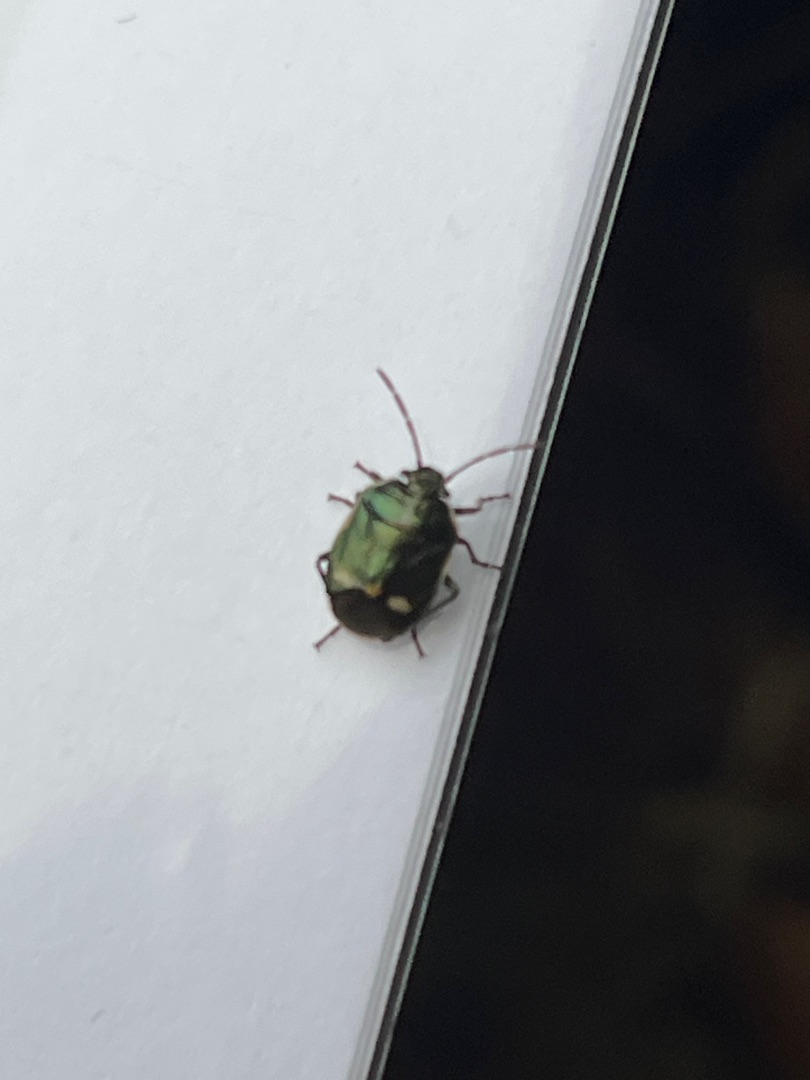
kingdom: Animalia
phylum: Arthropoda
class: Insecta
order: Hemiptera
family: Pentatomidae
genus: Eurydema
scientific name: Eurydema oleracea
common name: Almindelig kåltæge
